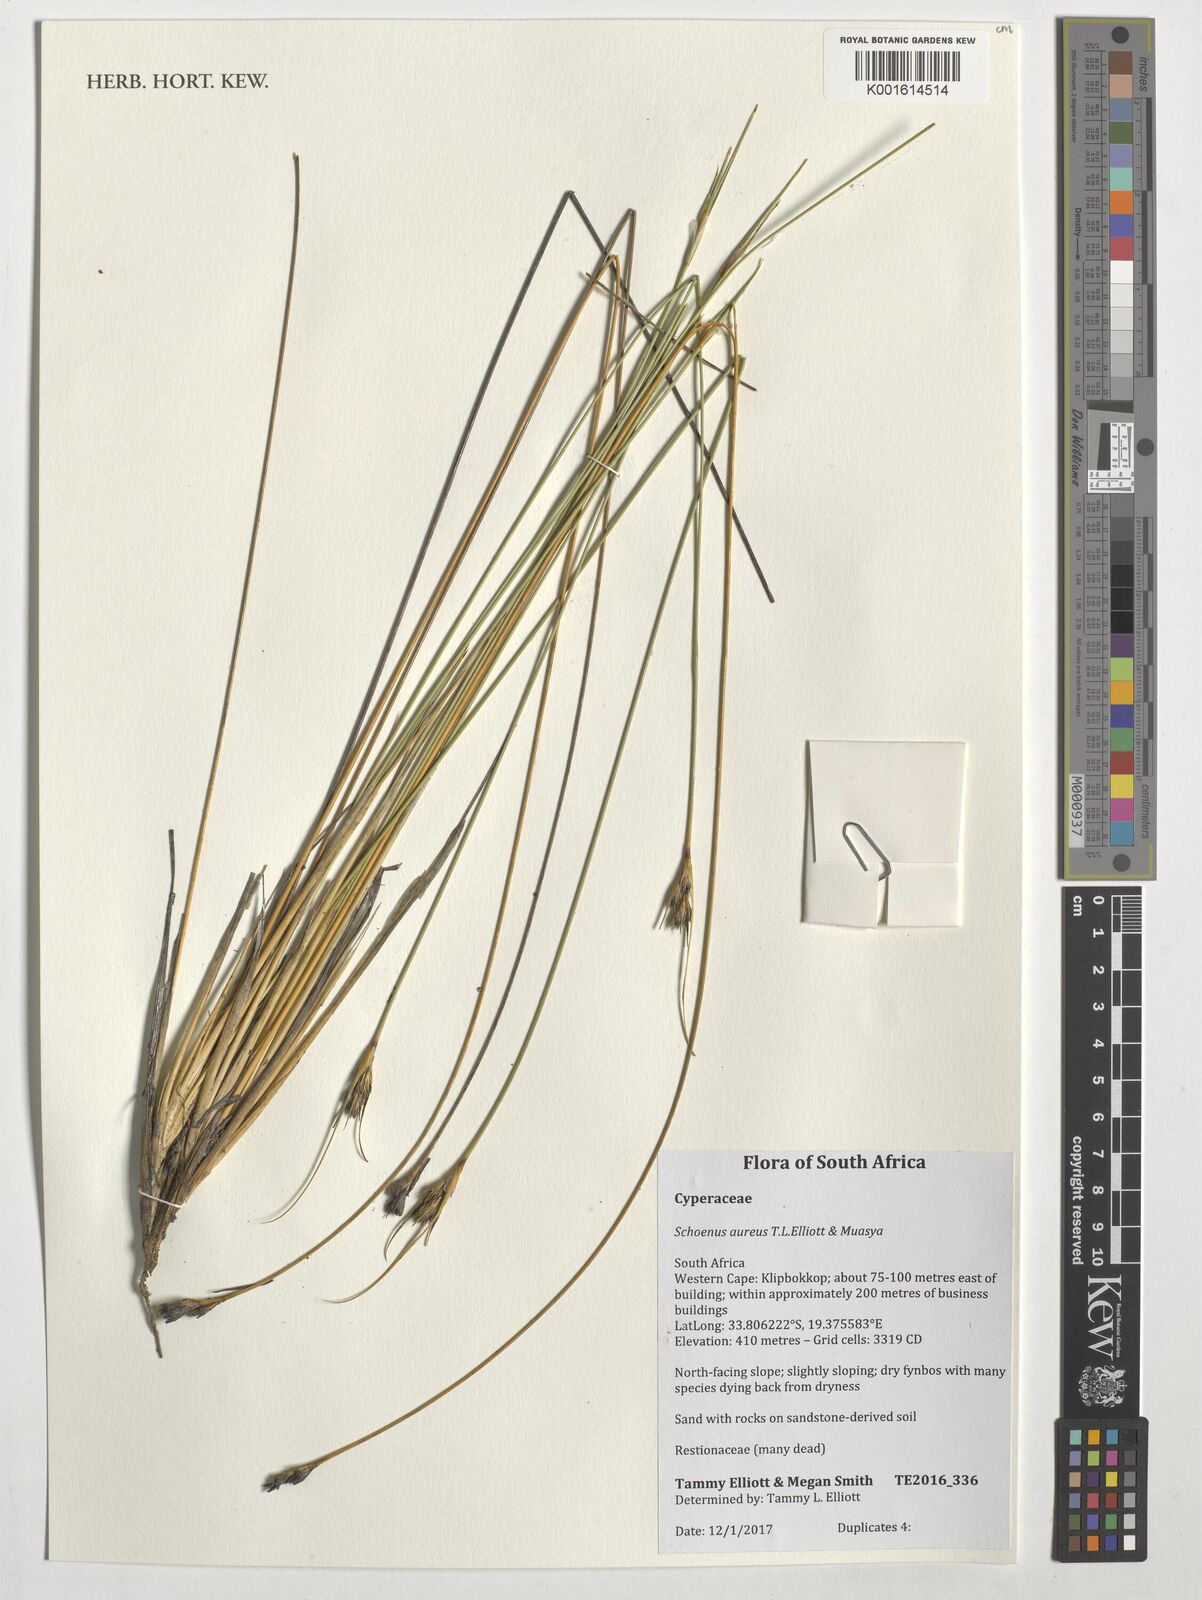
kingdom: Plantae
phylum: Tracheophyta
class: Liliopsida
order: Poales
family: Cyperaceae
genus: Schoenus
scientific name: Schoenus aureus
